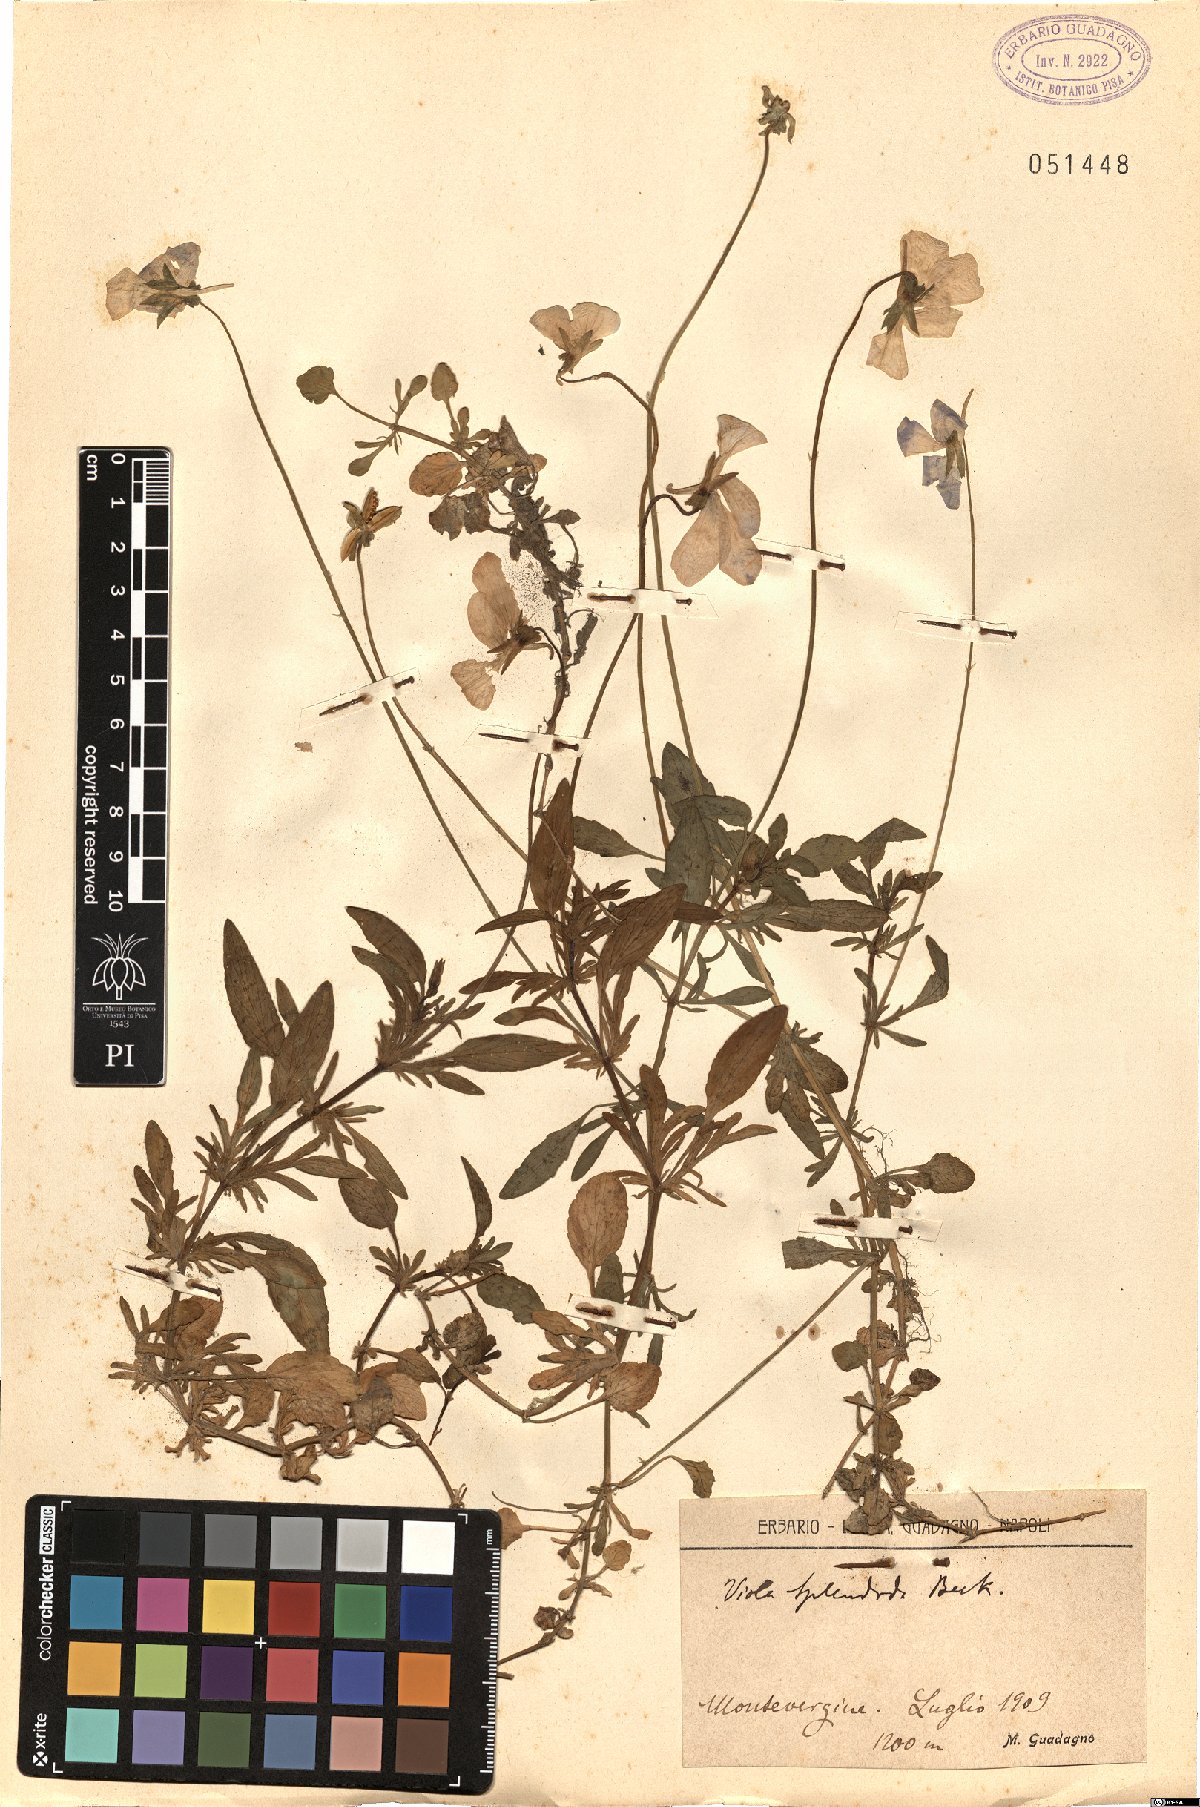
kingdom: Plantae
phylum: Tracheophyta
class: Magnoliopsida
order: Malpighiales
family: Violaceae
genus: Viola
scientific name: Viola aethnensis
